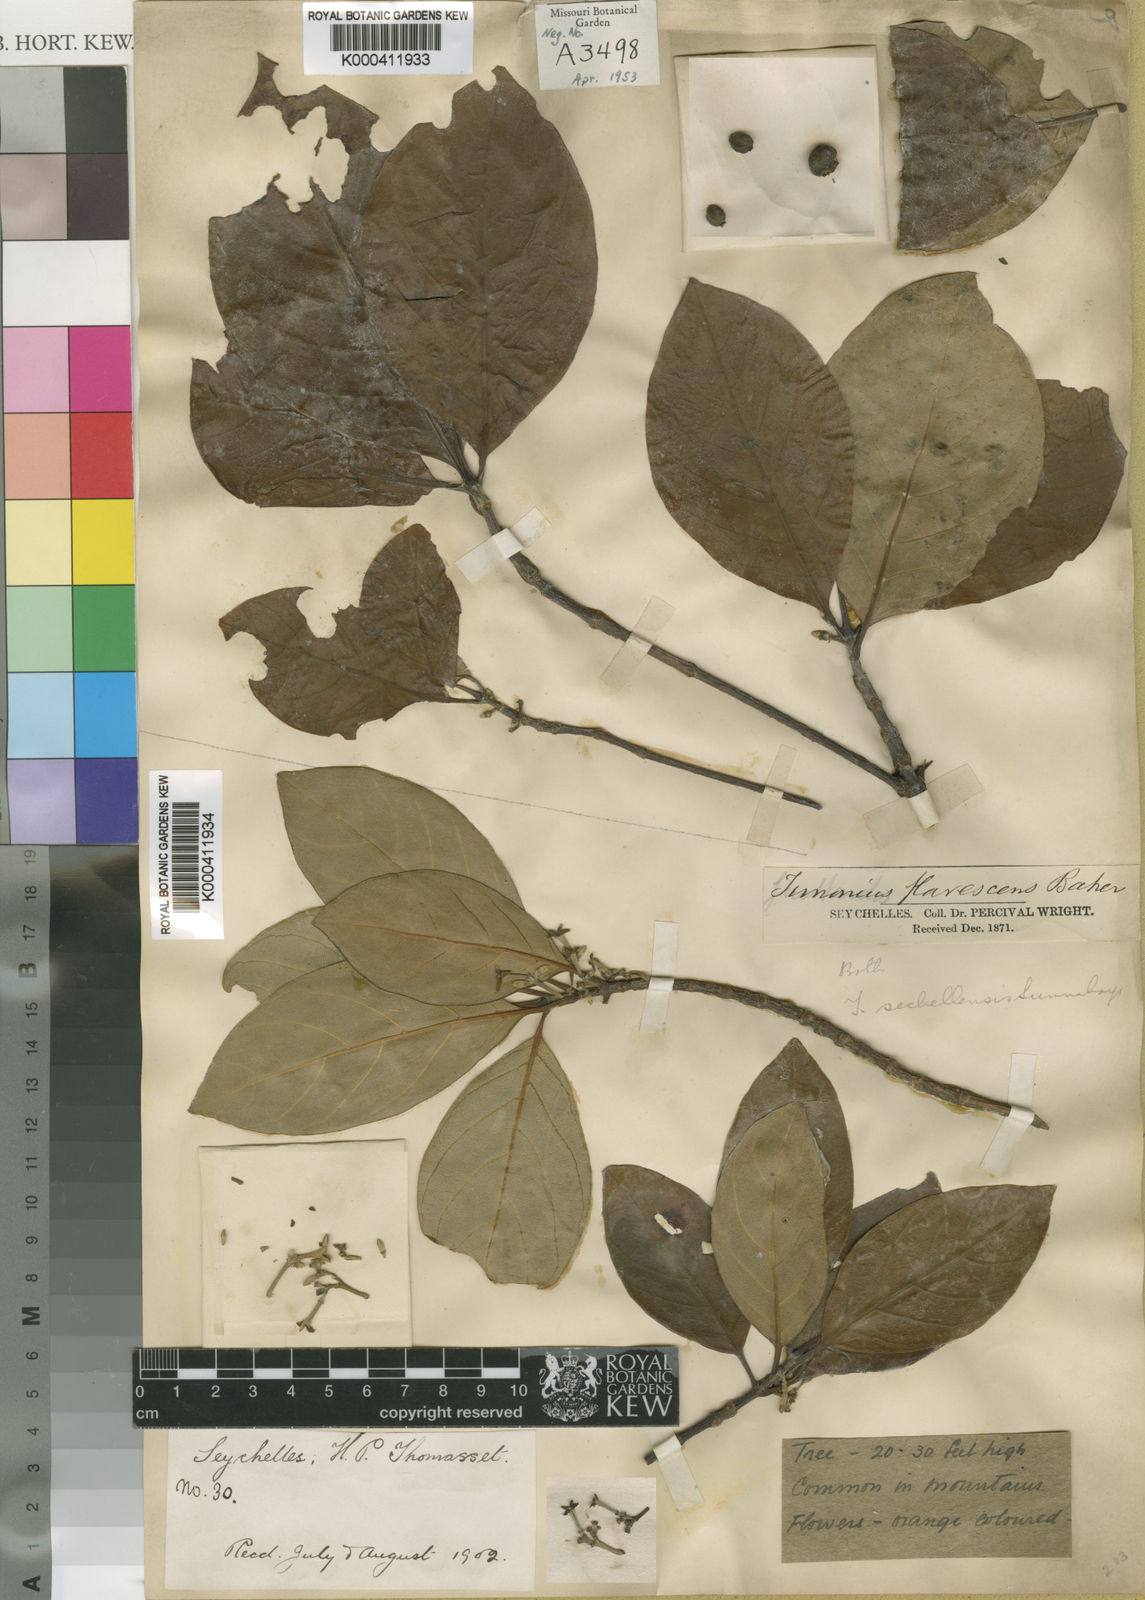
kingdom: Plantae
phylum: Tracheophyta
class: Magnoliopsida
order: Gentianales
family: Rubiaceae
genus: Timonius
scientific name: Timonius flavescens
